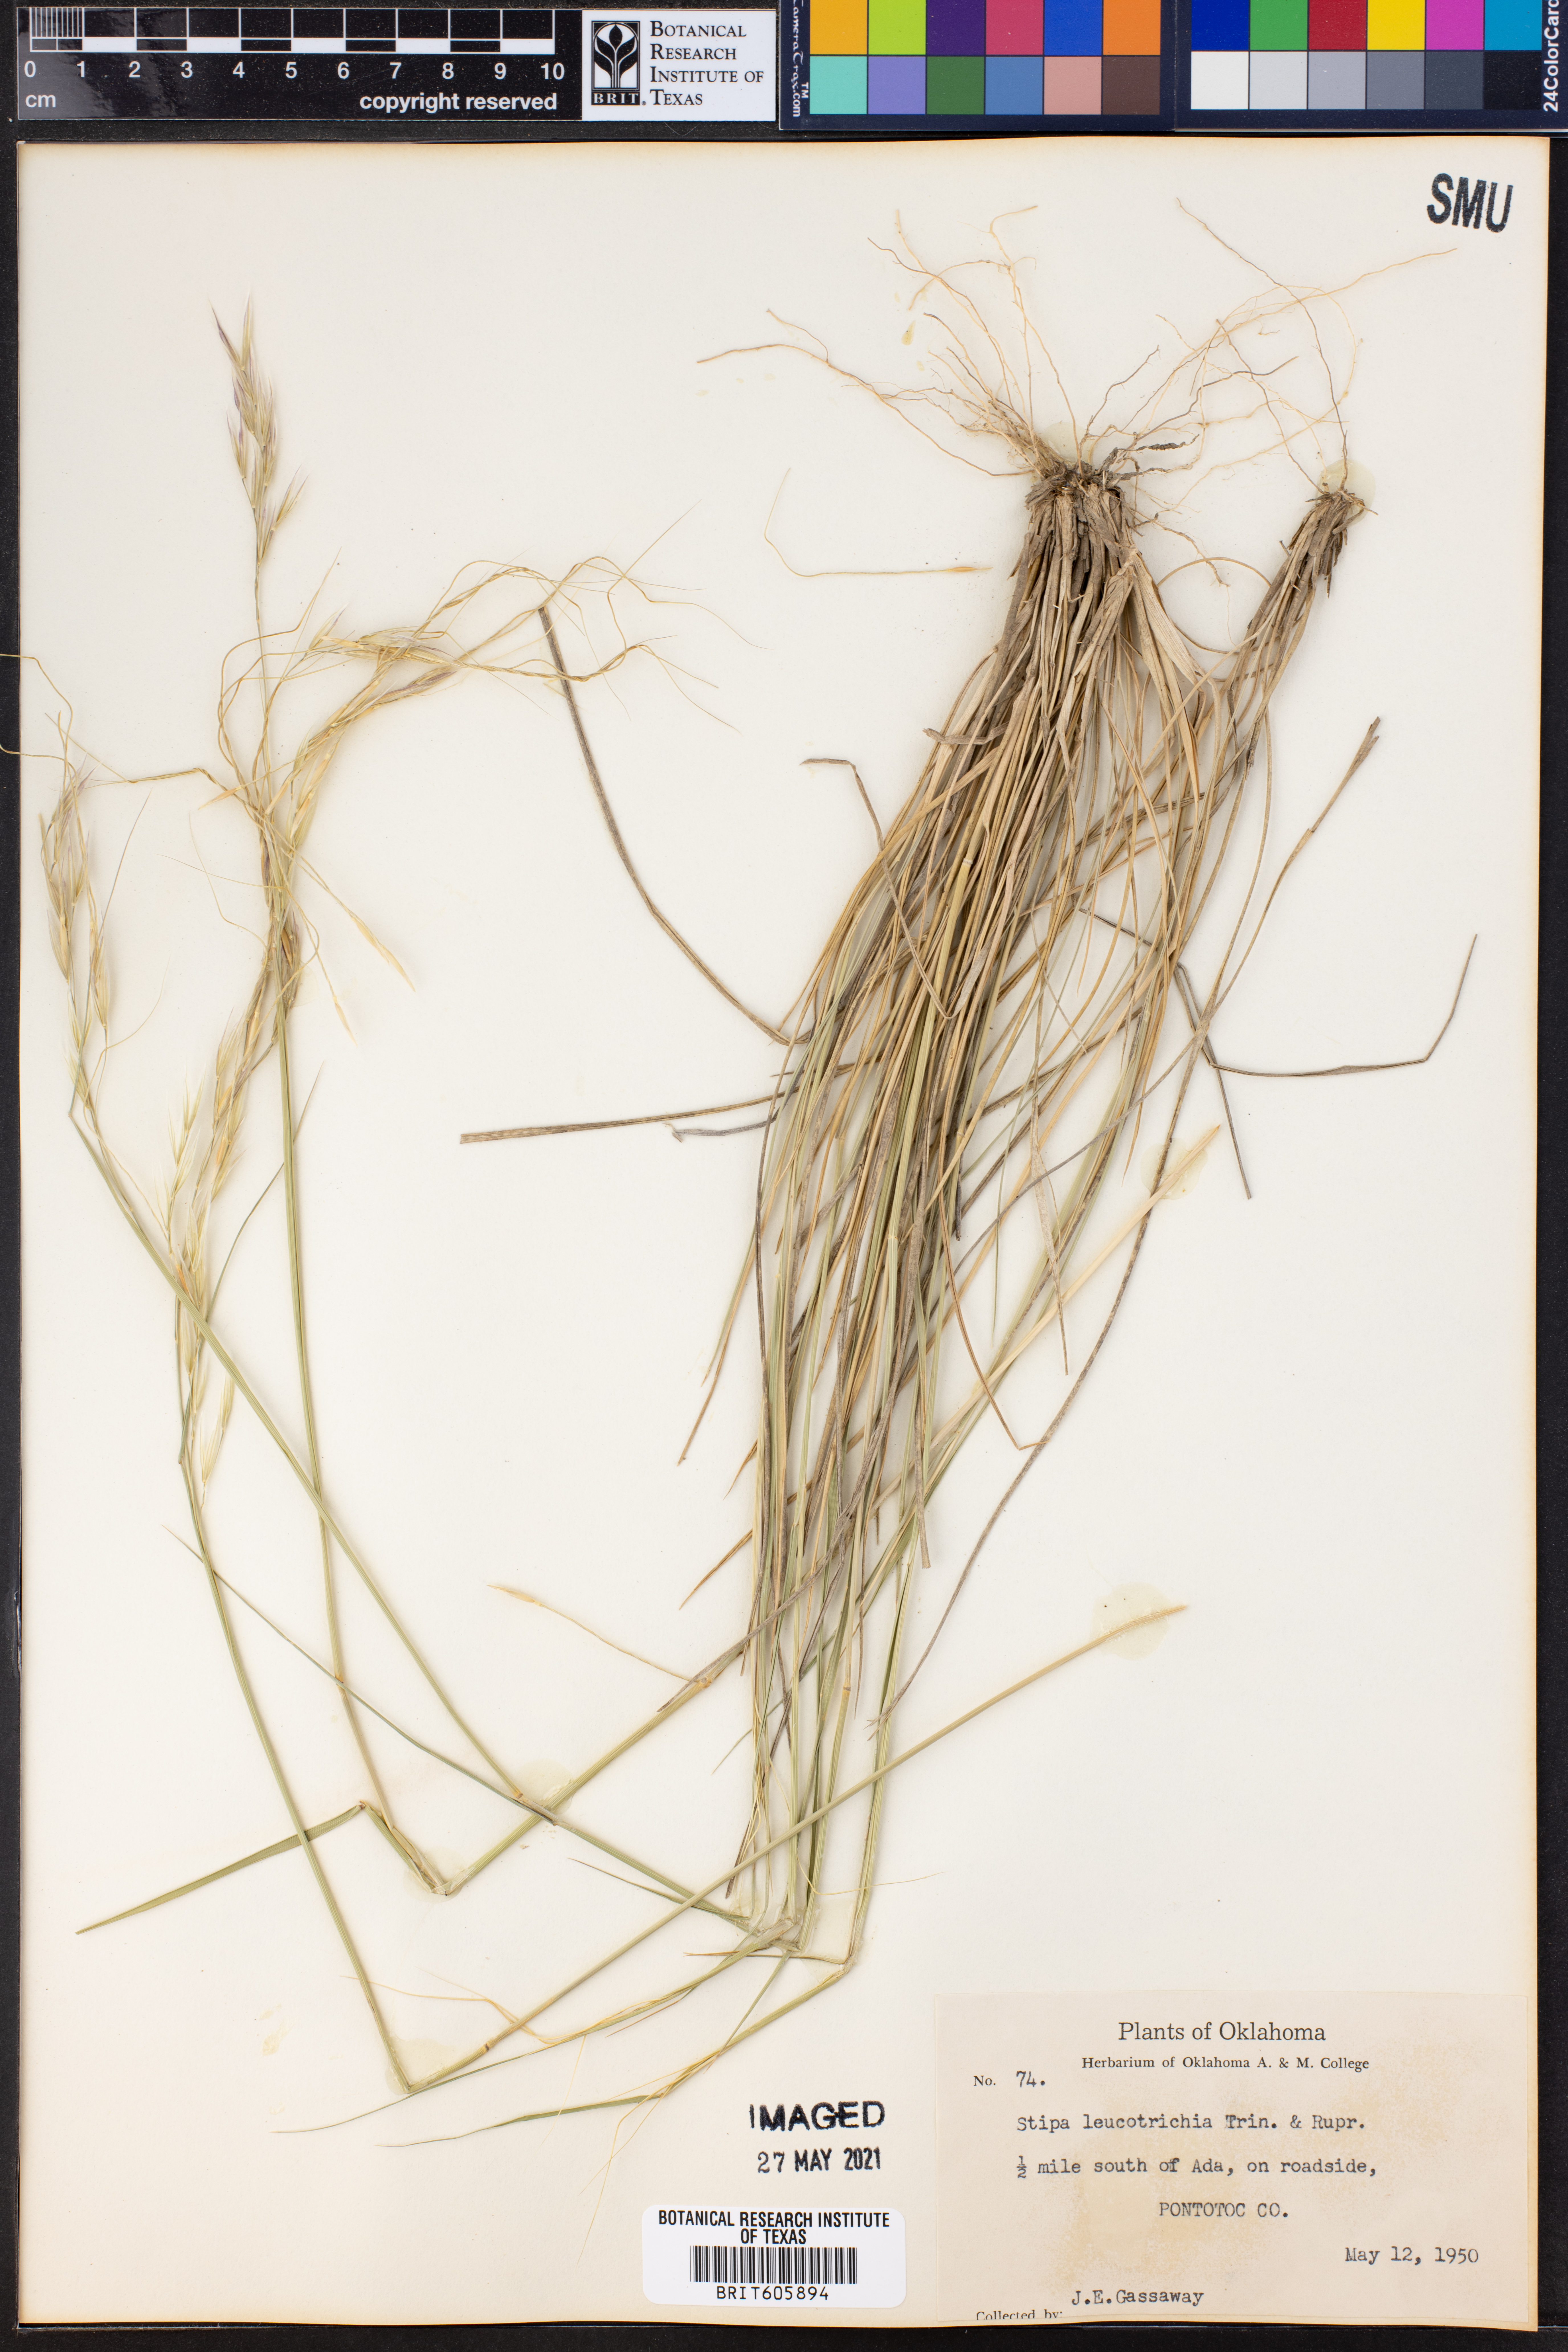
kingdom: Plantae
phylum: Tracheophyta
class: Liliopsida
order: Poales
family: Poaceae
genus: Nassella
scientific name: Nassella leucotricha
